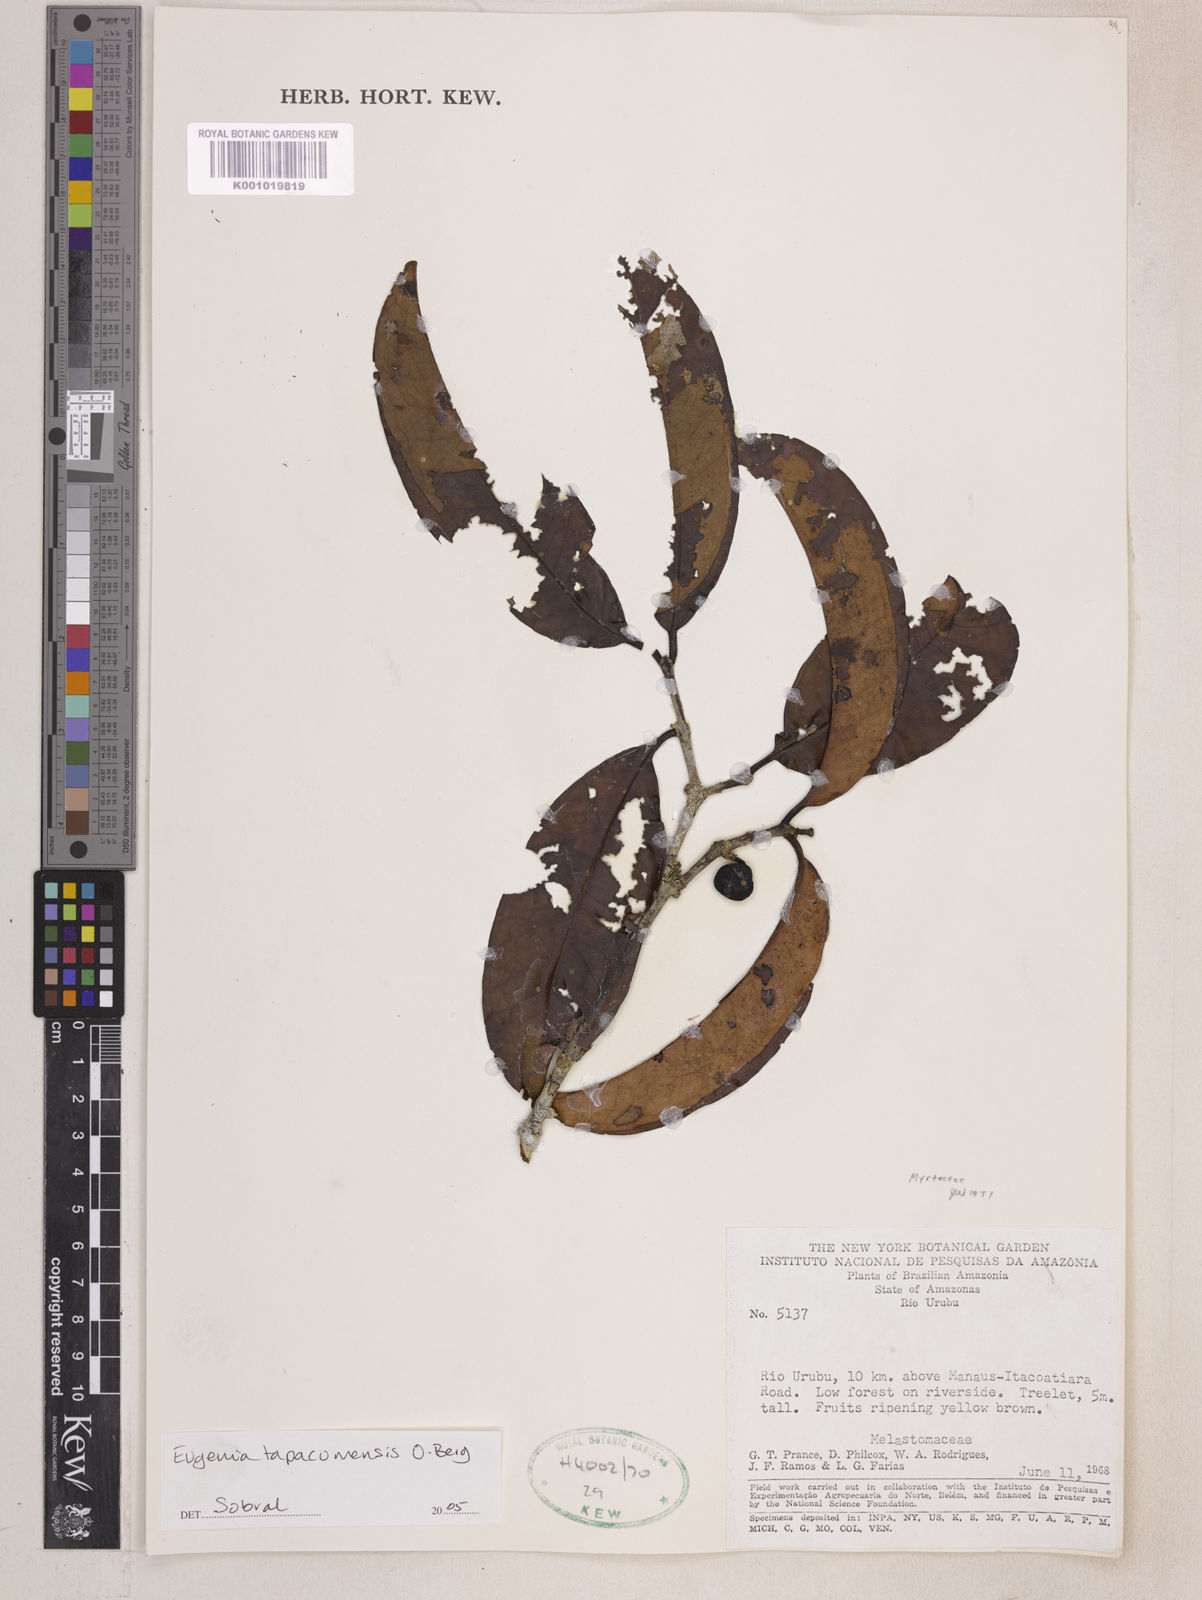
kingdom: Plantae
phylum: Tracheophyta
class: Magnoliopsida
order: Myrtales
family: Myrtaceae
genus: Eugenia
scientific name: Eugenia stictopetala
